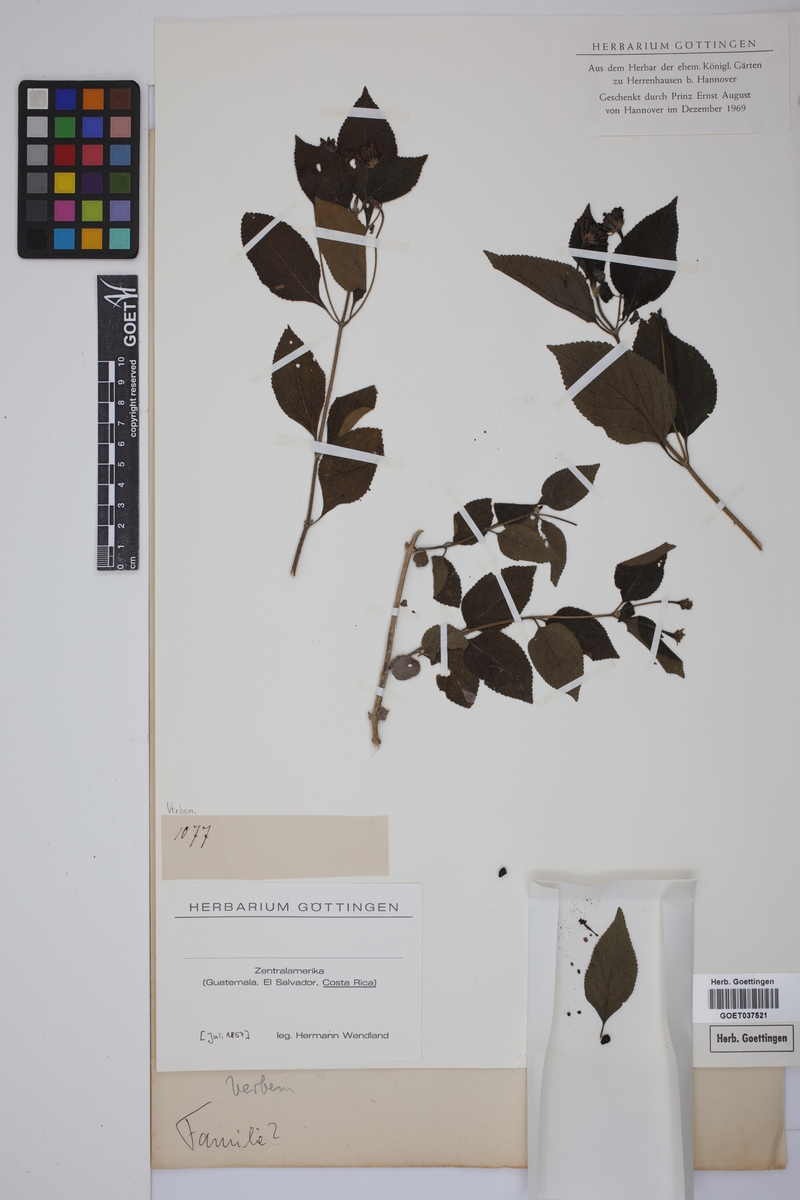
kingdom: Plantae
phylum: Tracheophyta
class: Magnoliopsida
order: Lamiales
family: Verbenaceae
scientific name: Verbenaceae
